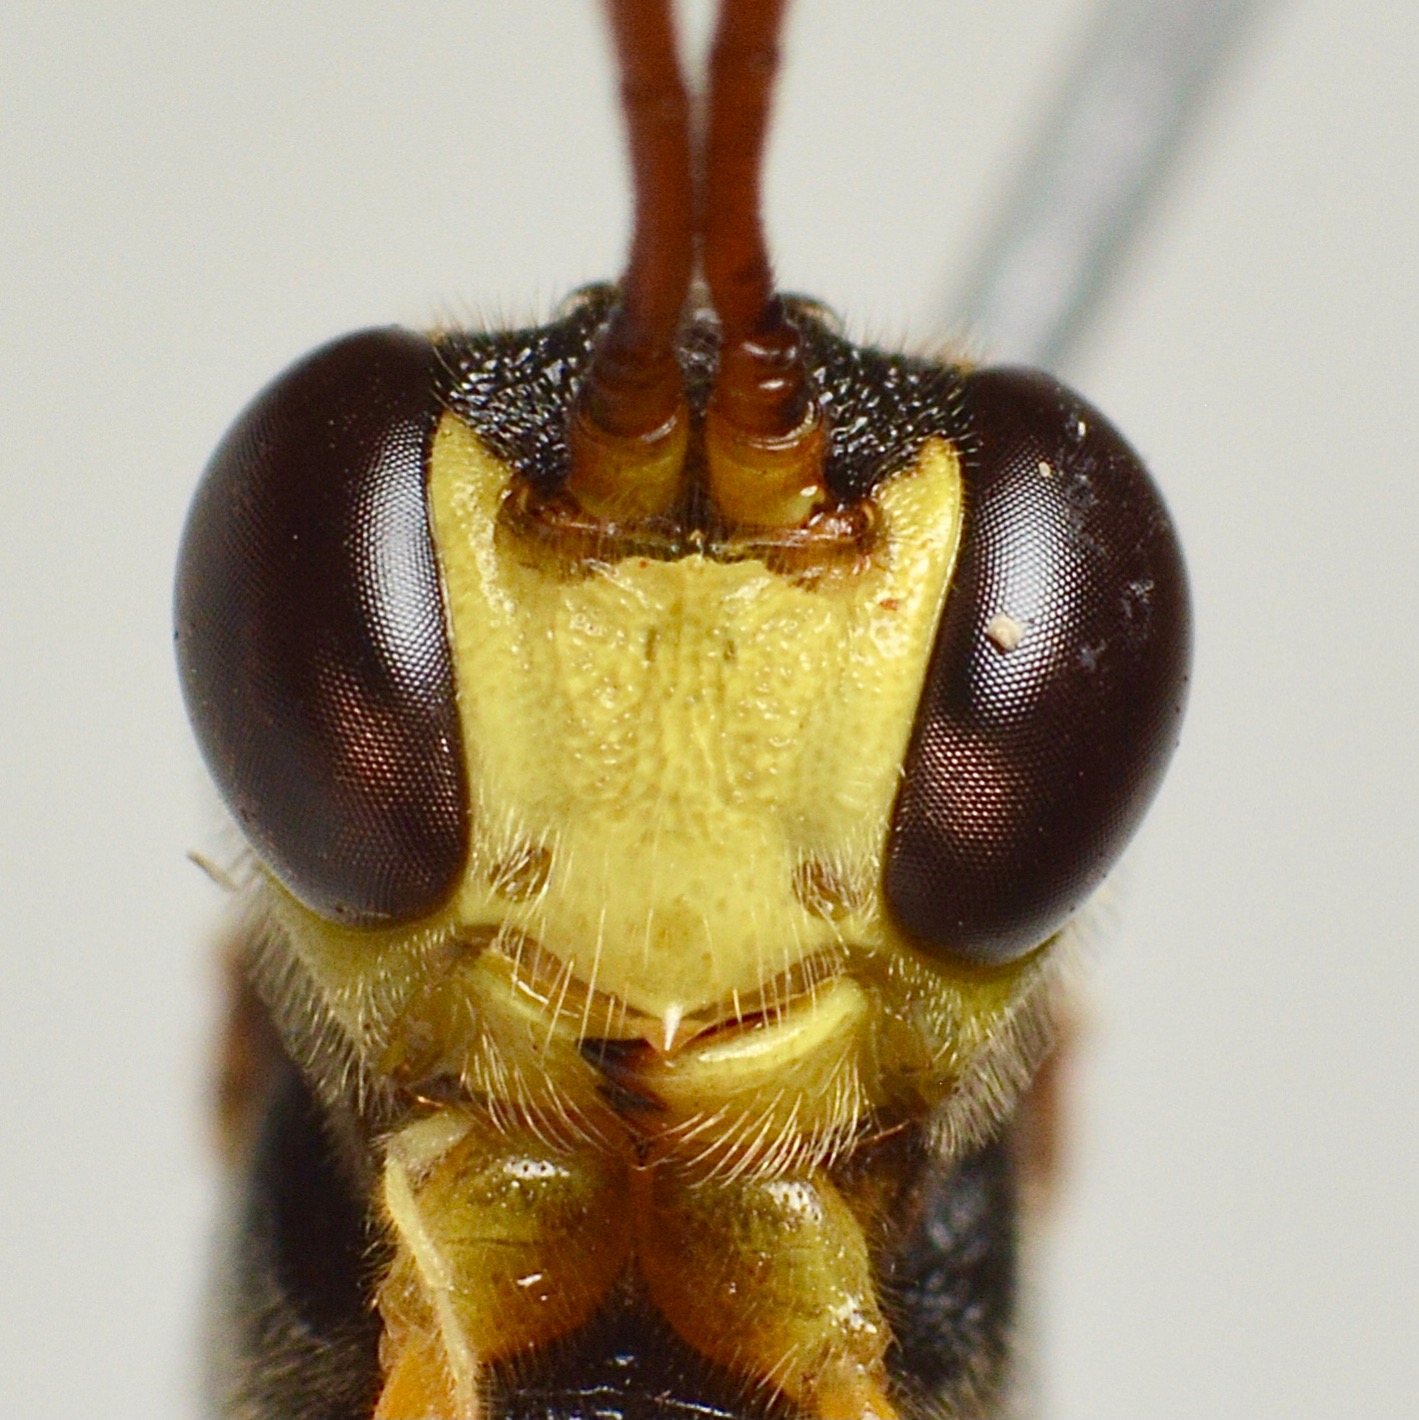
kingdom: Animalia
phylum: Arthropoda
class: Insecta
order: Hymenoptera
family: Ichneumonidae
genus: Aphanistes
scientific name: Aphanistes ruficornis
